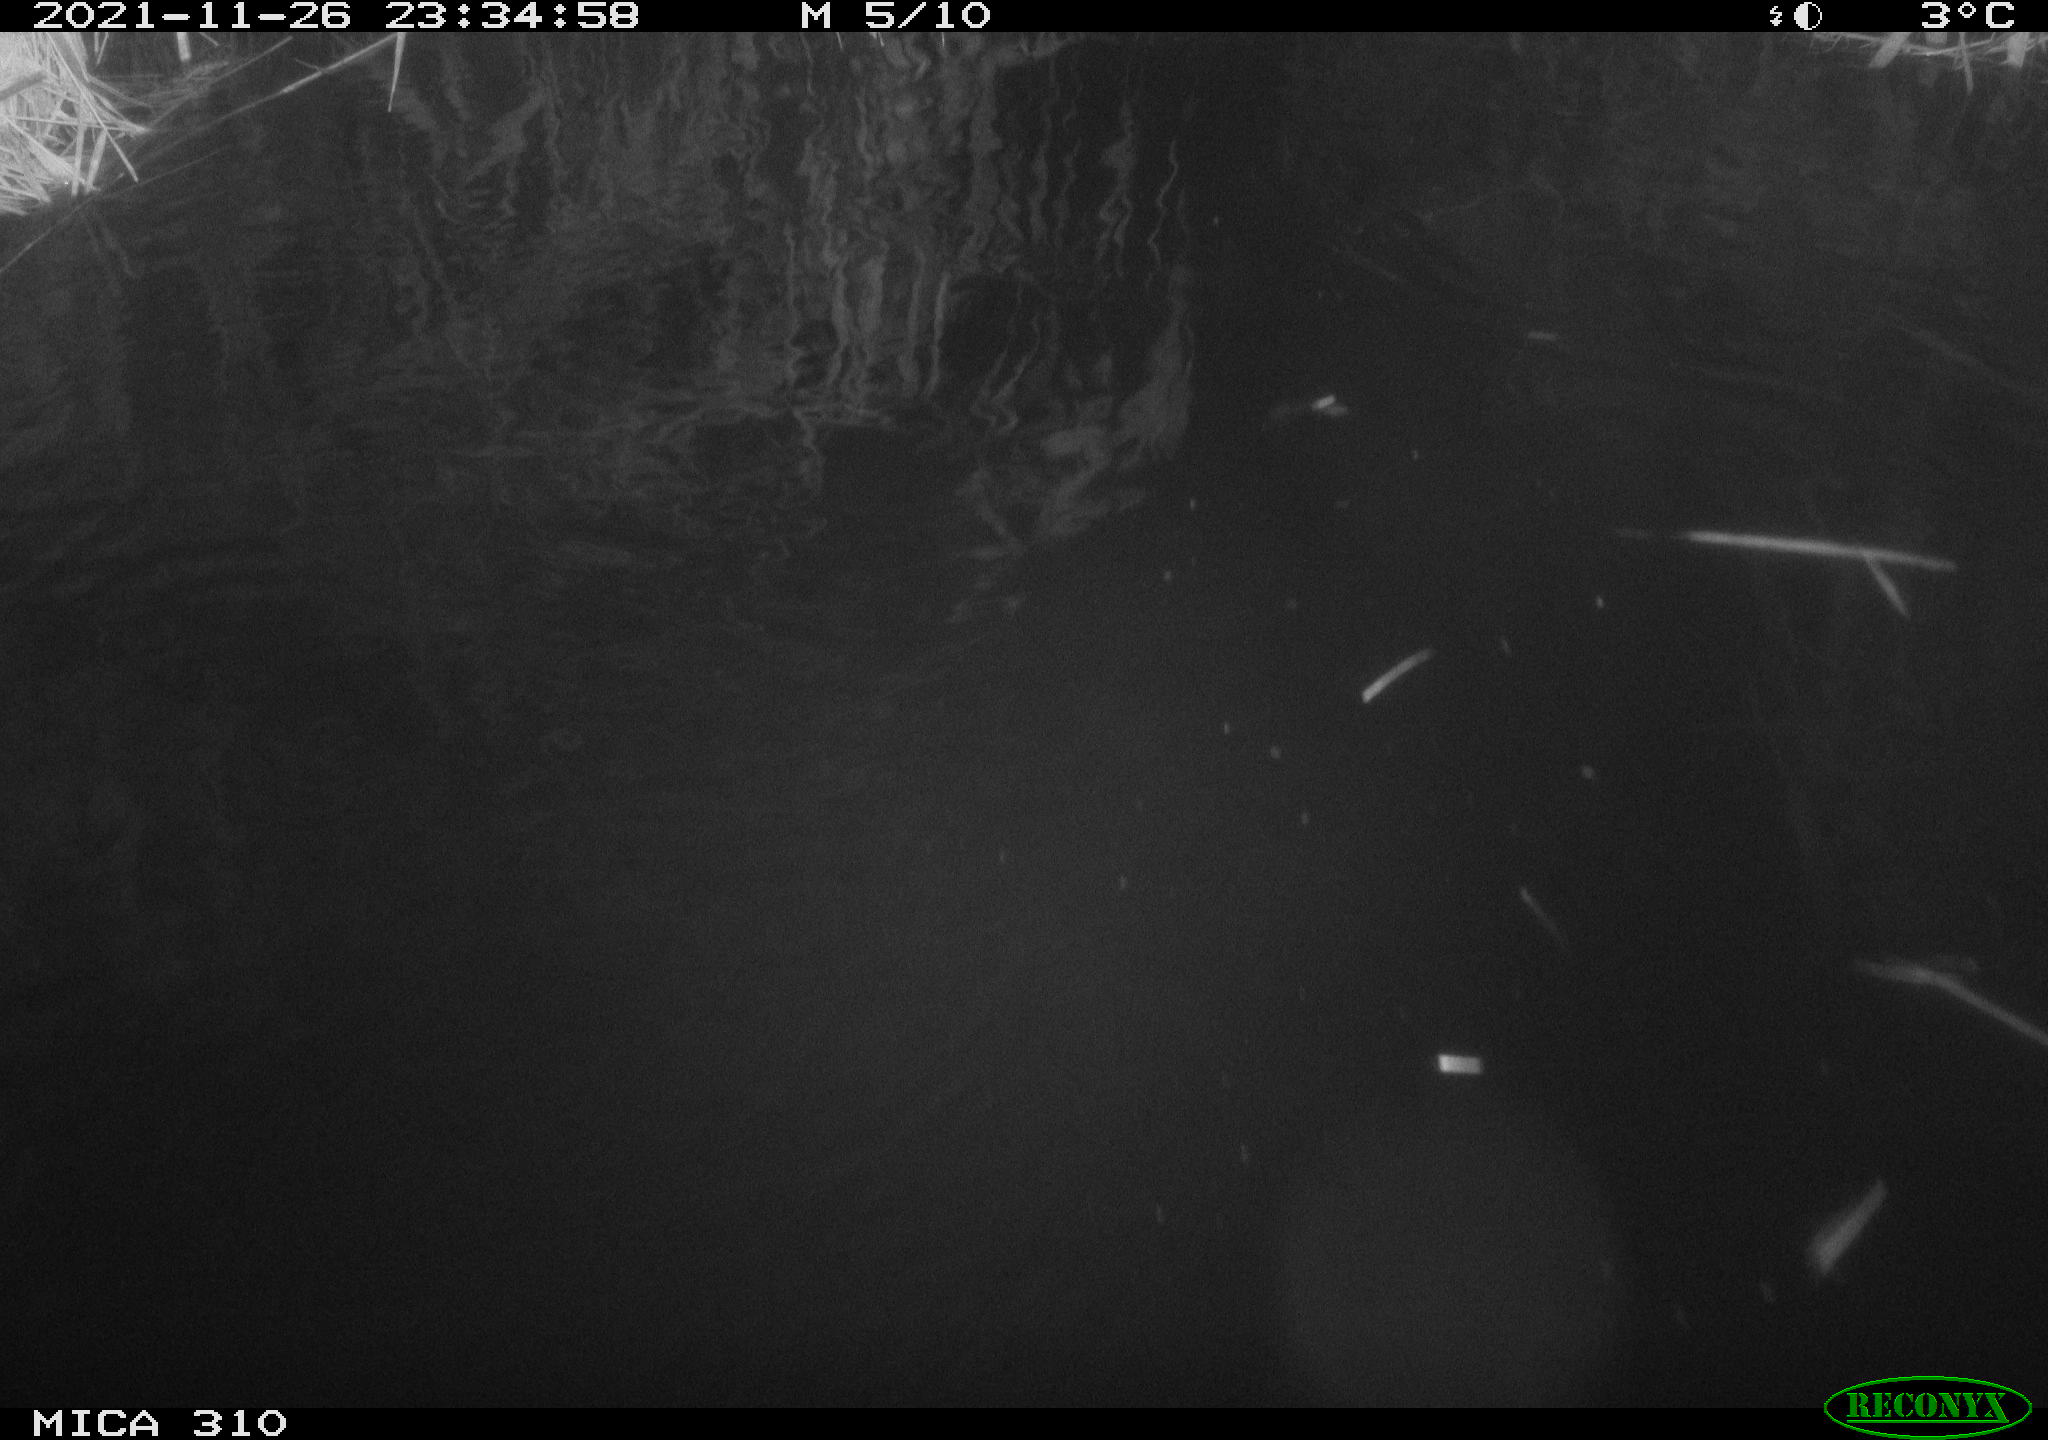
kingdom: Animalia
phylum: Chordata
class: Mammalia
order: Rodentia
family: Muridae
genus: Rattus
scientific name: Rattus norvegicus
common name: Brown rat
